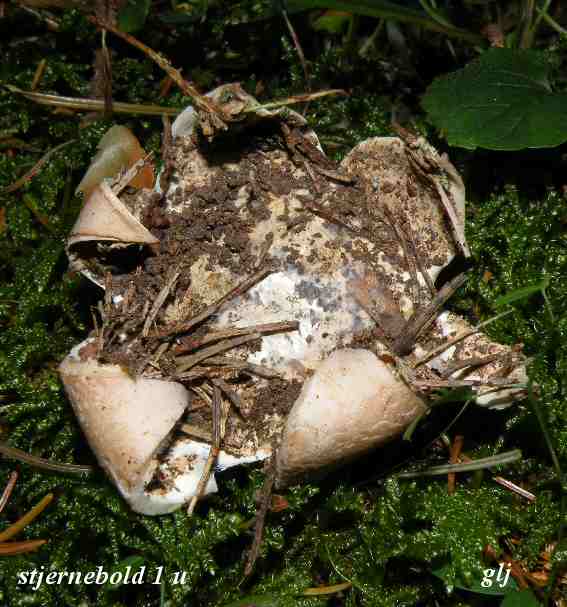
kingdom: Fungi
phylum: Basidiomycota
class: Agaricomycetes
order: Geastrales
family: Geastraceae
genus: Geastrum
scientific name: Geastrum fimbriatum
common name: frynset stjernebold
